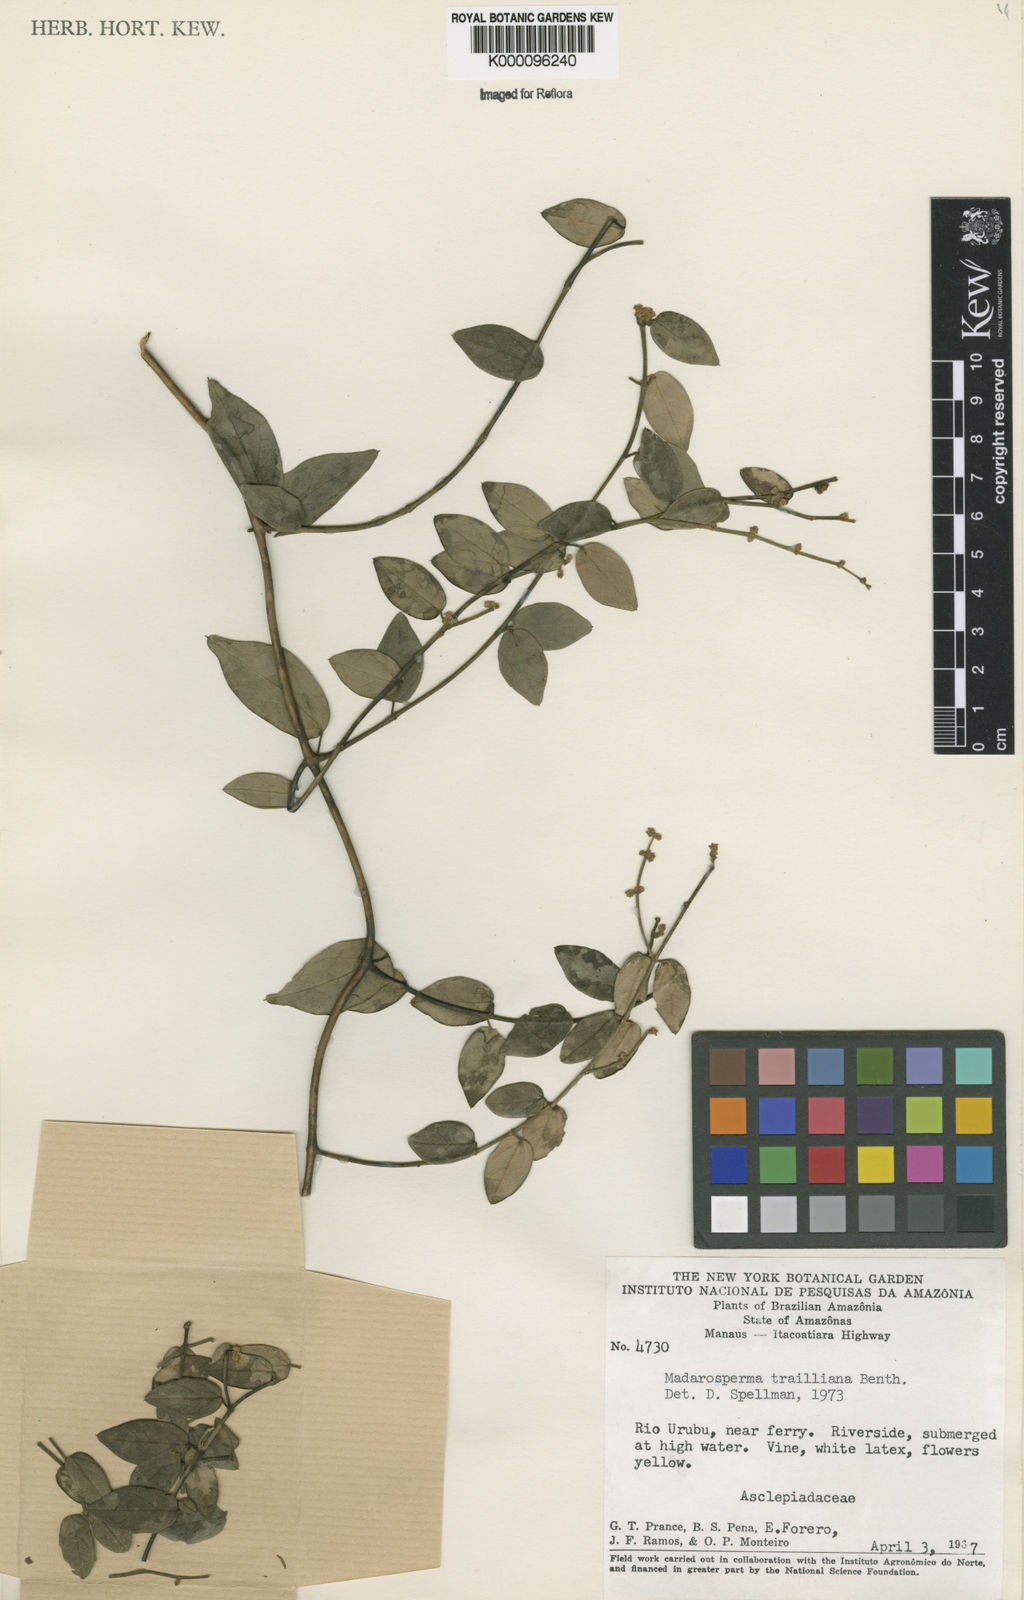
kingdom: Plantae
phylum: Tracheophyta
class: Magnoliopsida
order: Gentianales
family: Apocynaceae
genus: Tassadia
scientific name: Tassadia trailiana
